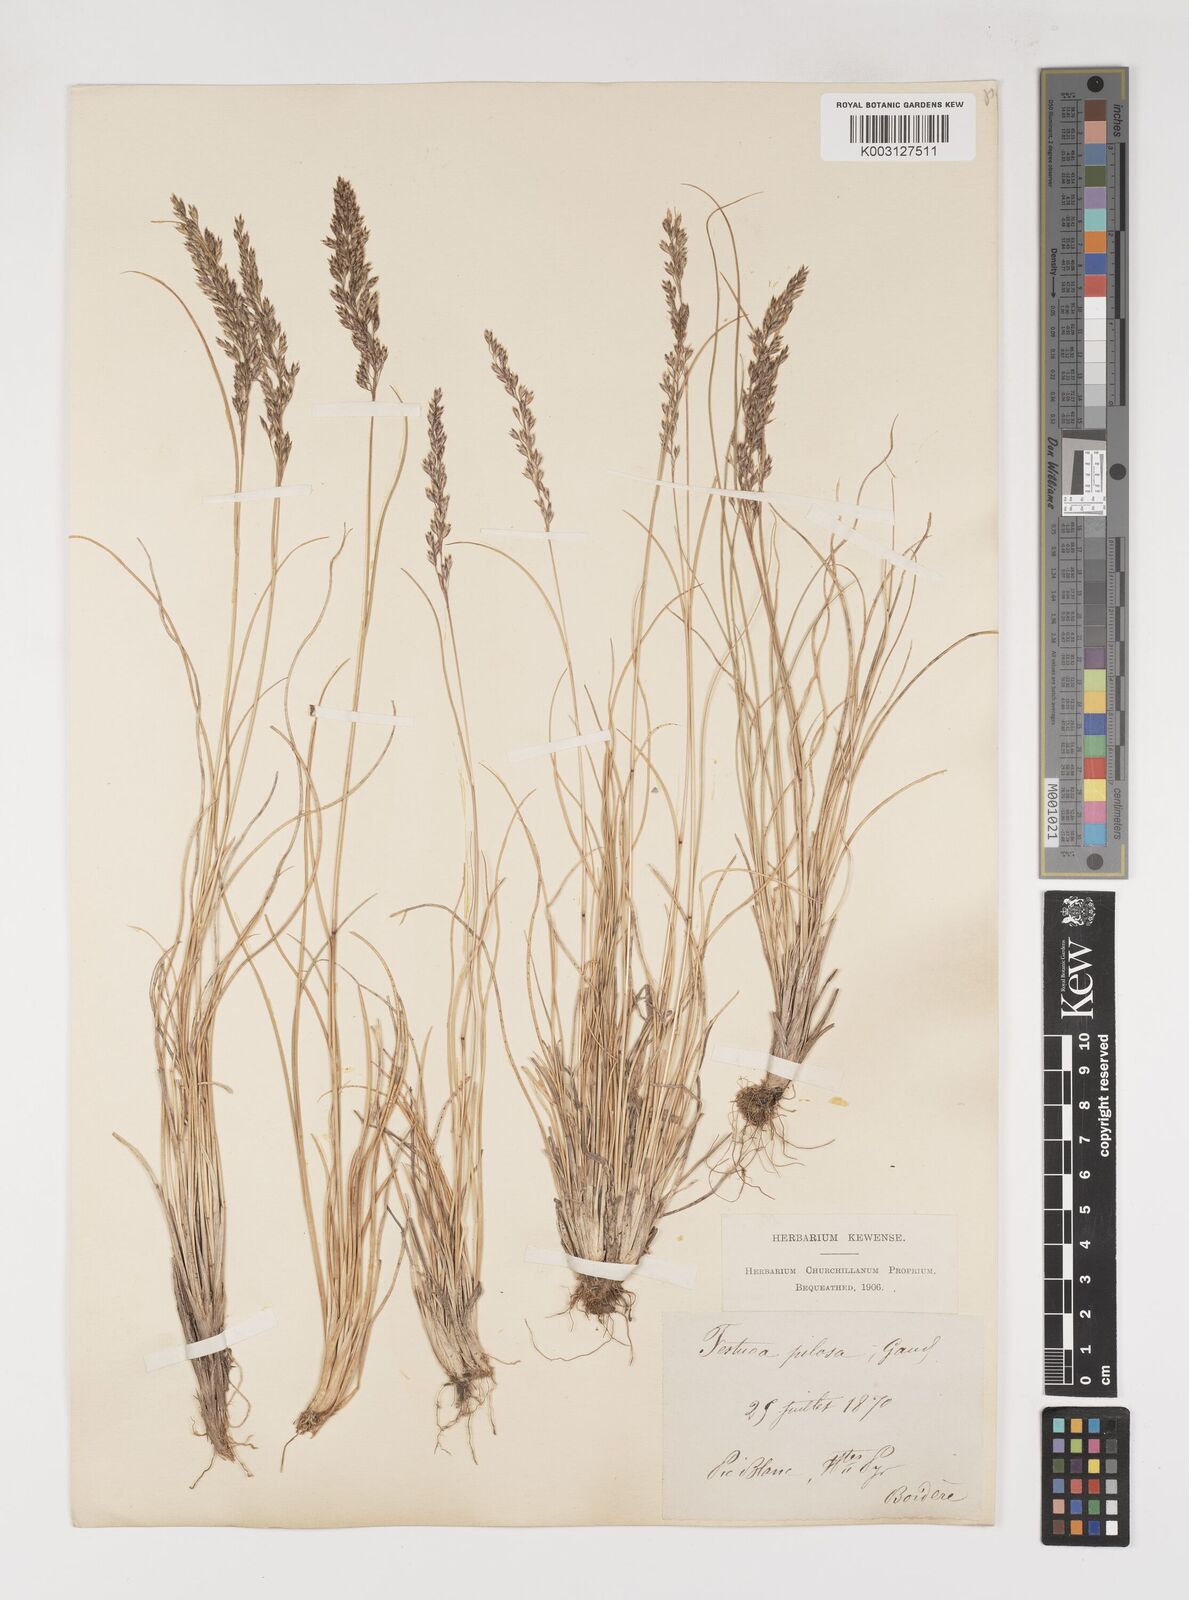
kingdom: Plantae
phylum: Tracheophyta
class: Liliopsida
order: Poales
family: Poaceae
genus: Bellardiochloa
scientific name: Bellardiochloa variegata
